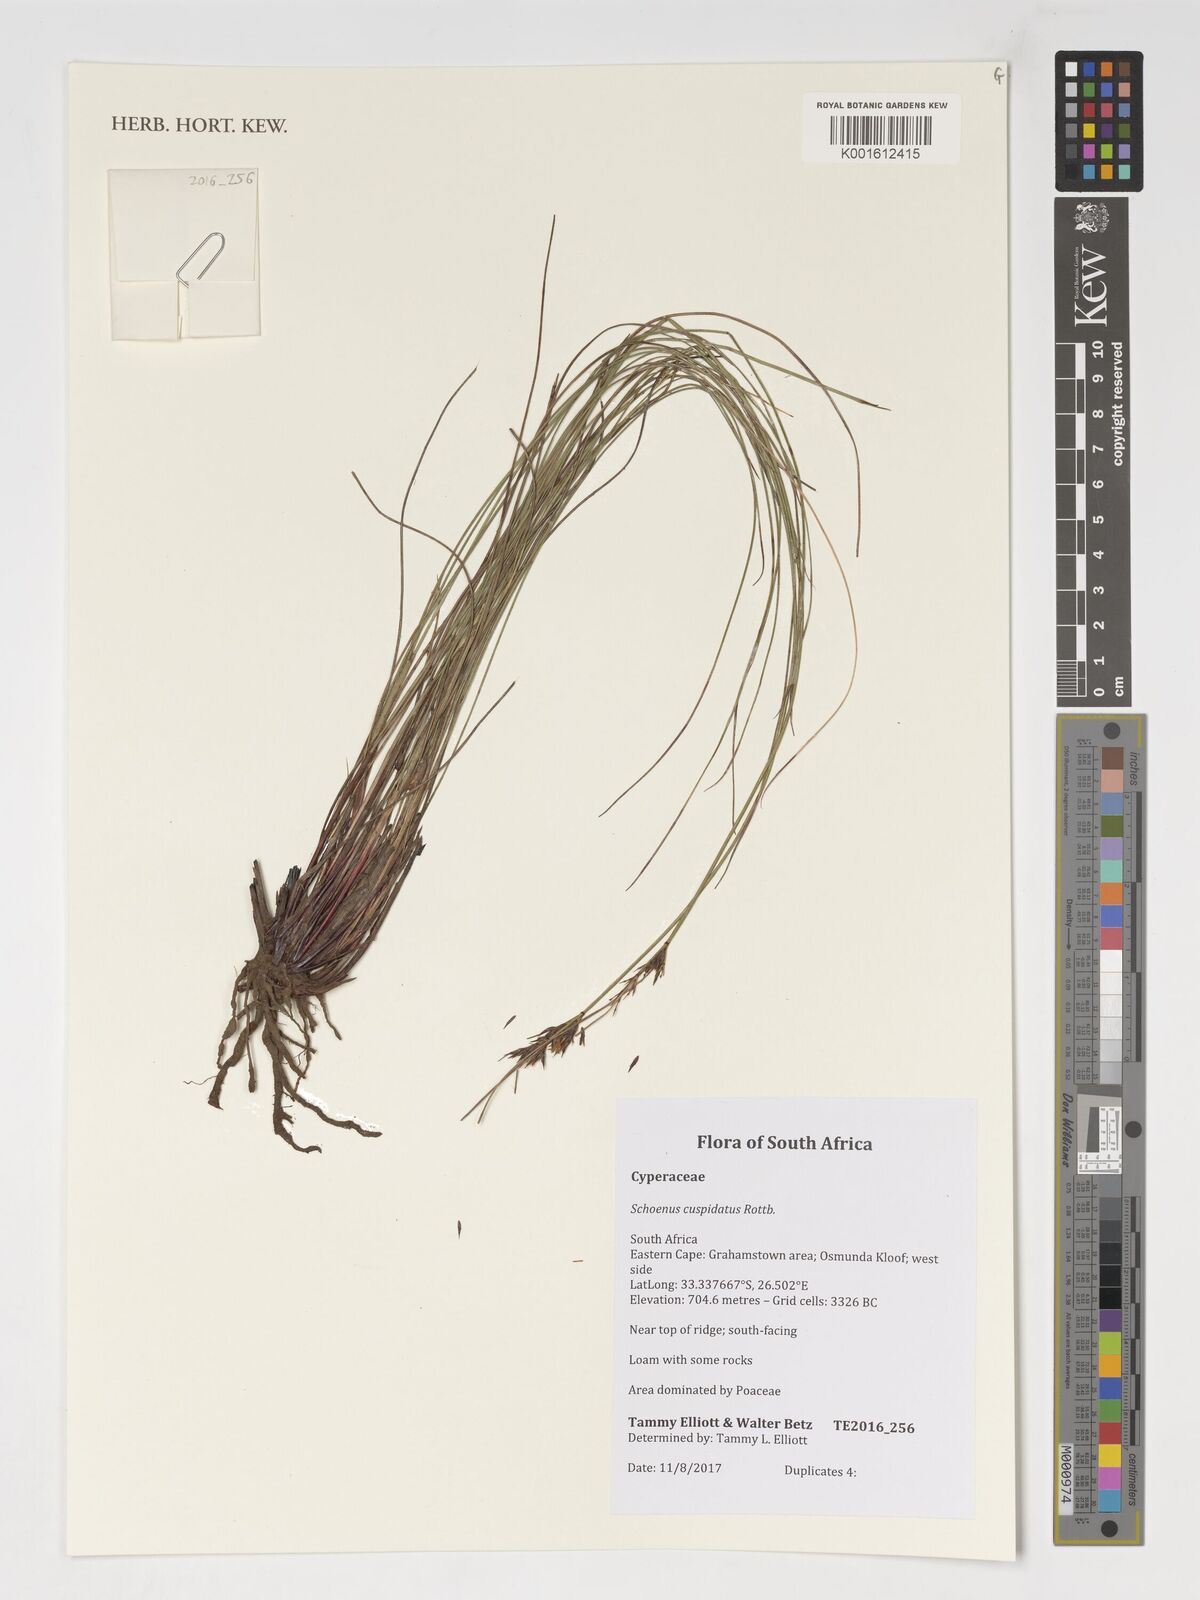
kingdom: Plantae
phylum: Tracheophyta
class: Liliopsida
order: Poales
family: Cyperaceae
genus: Schoenus
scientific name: Schoenus cuspidatus
